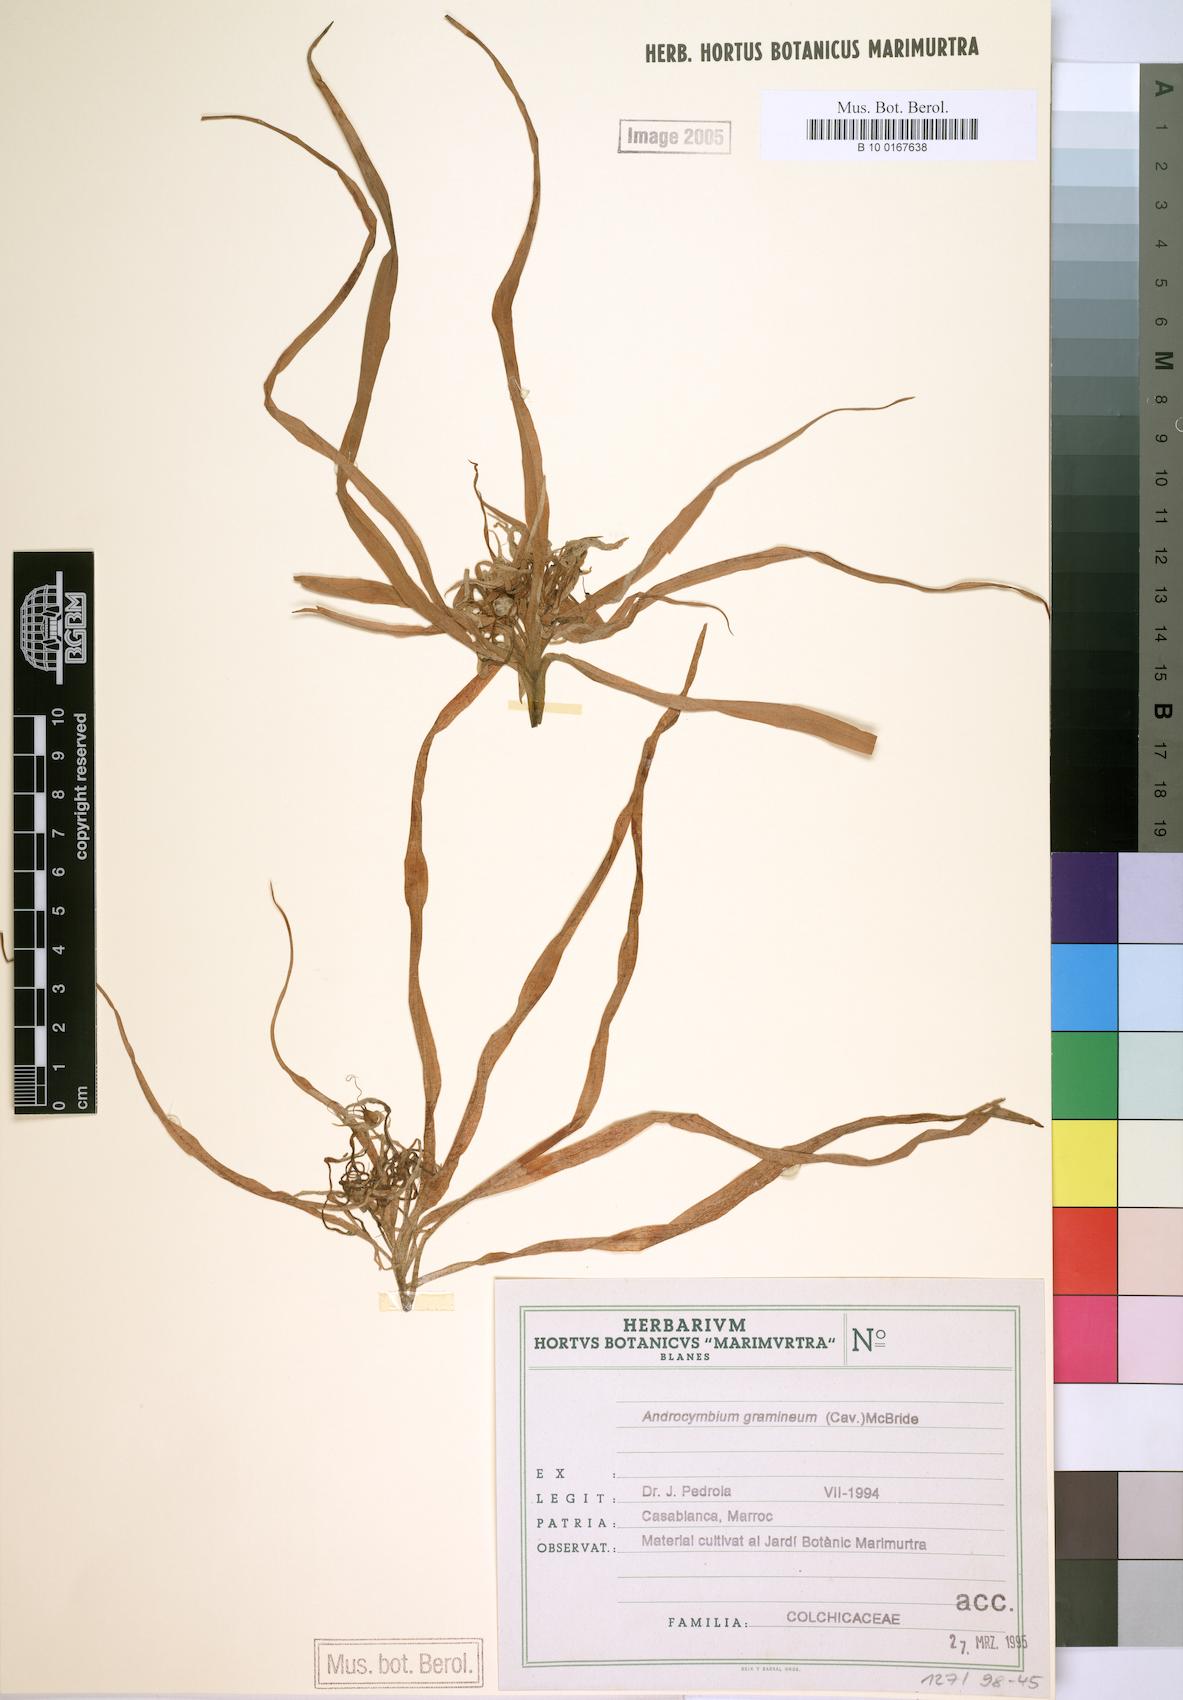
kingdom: Plantae
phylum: Tracheophyta
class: Liliopsida
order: Liliales
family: Colchicaceae
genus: Colchicum
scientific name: Colchicum gramineum
